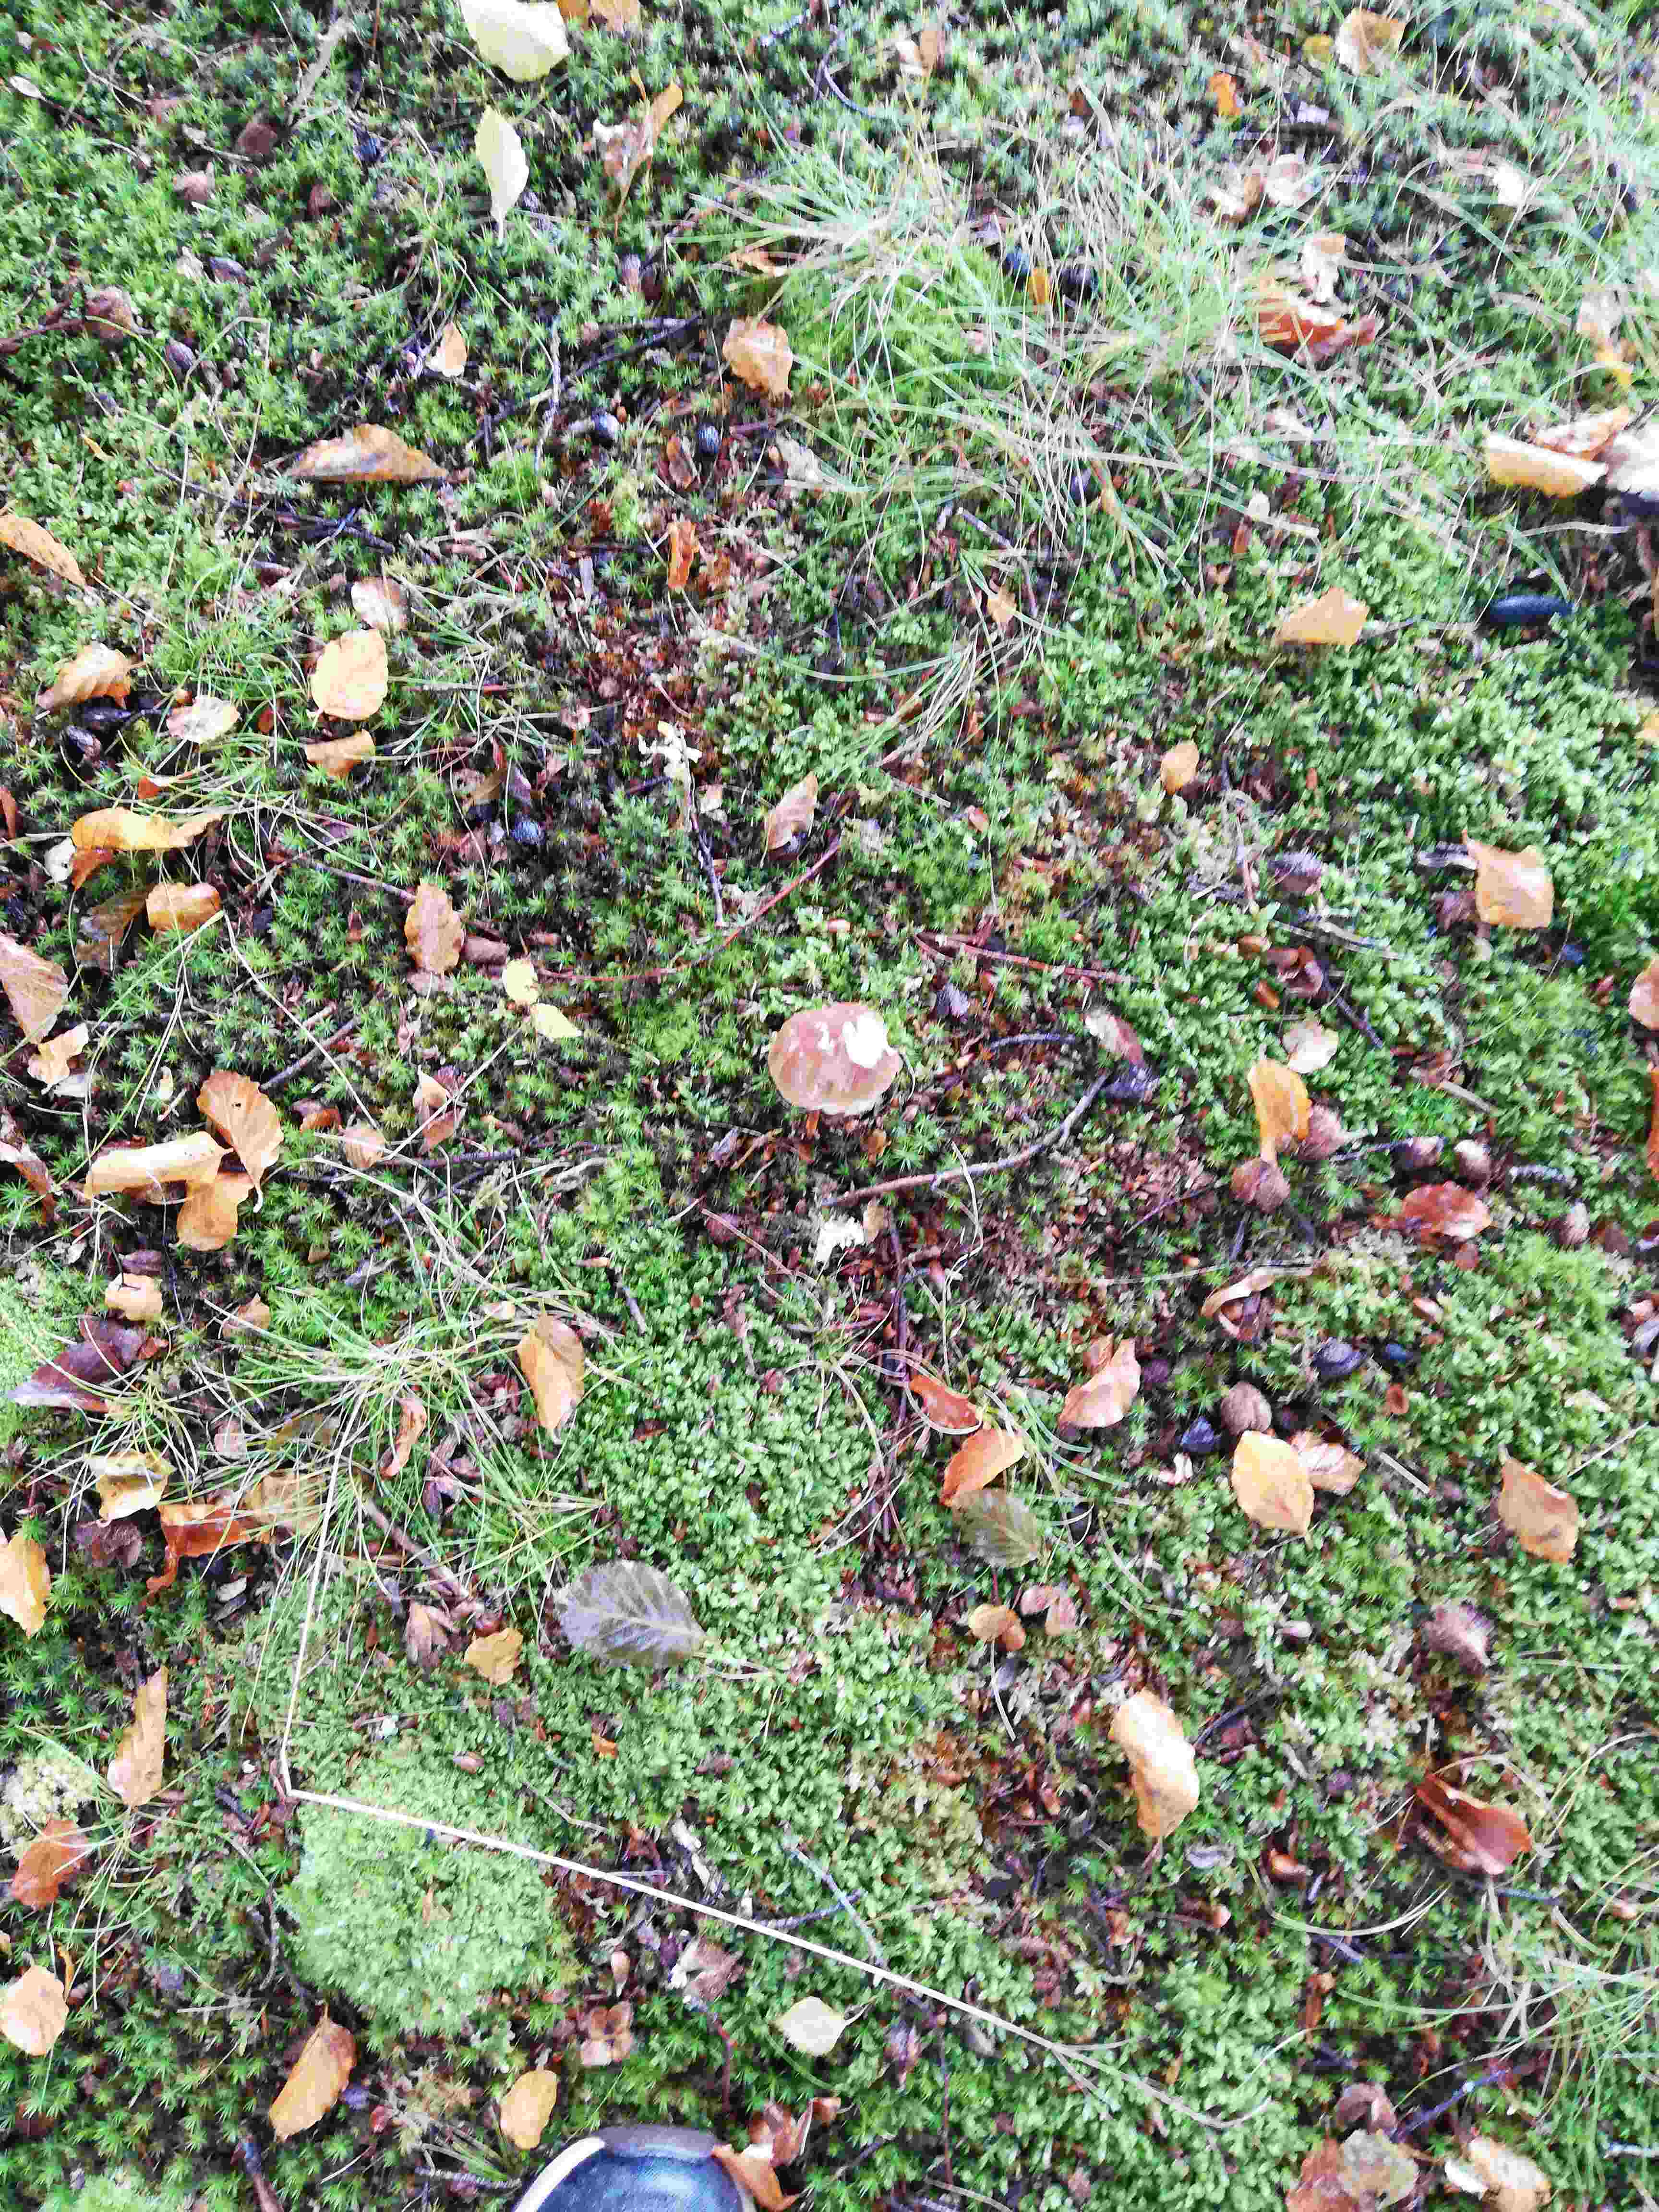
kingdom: Fungi
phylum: Basidiomycota
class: Agaricomycetes
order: Boletales
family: Boletaceae
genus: Boletus
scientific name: Boletus edulis
